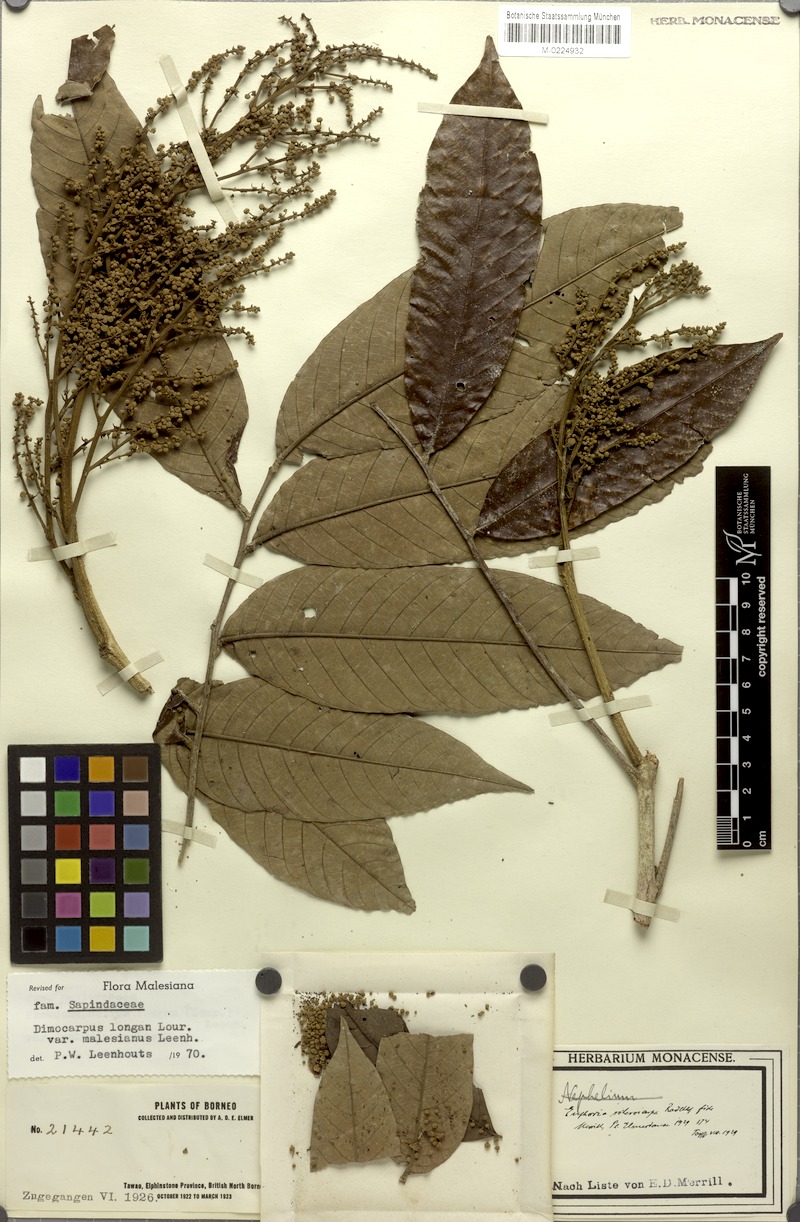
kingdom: Plantae
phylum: Tracheophyta
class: Magnoliopsida
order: Sapindales
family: Sapindaceae
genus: Litchi
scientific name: Litchi Euphoria sclerocarpa
